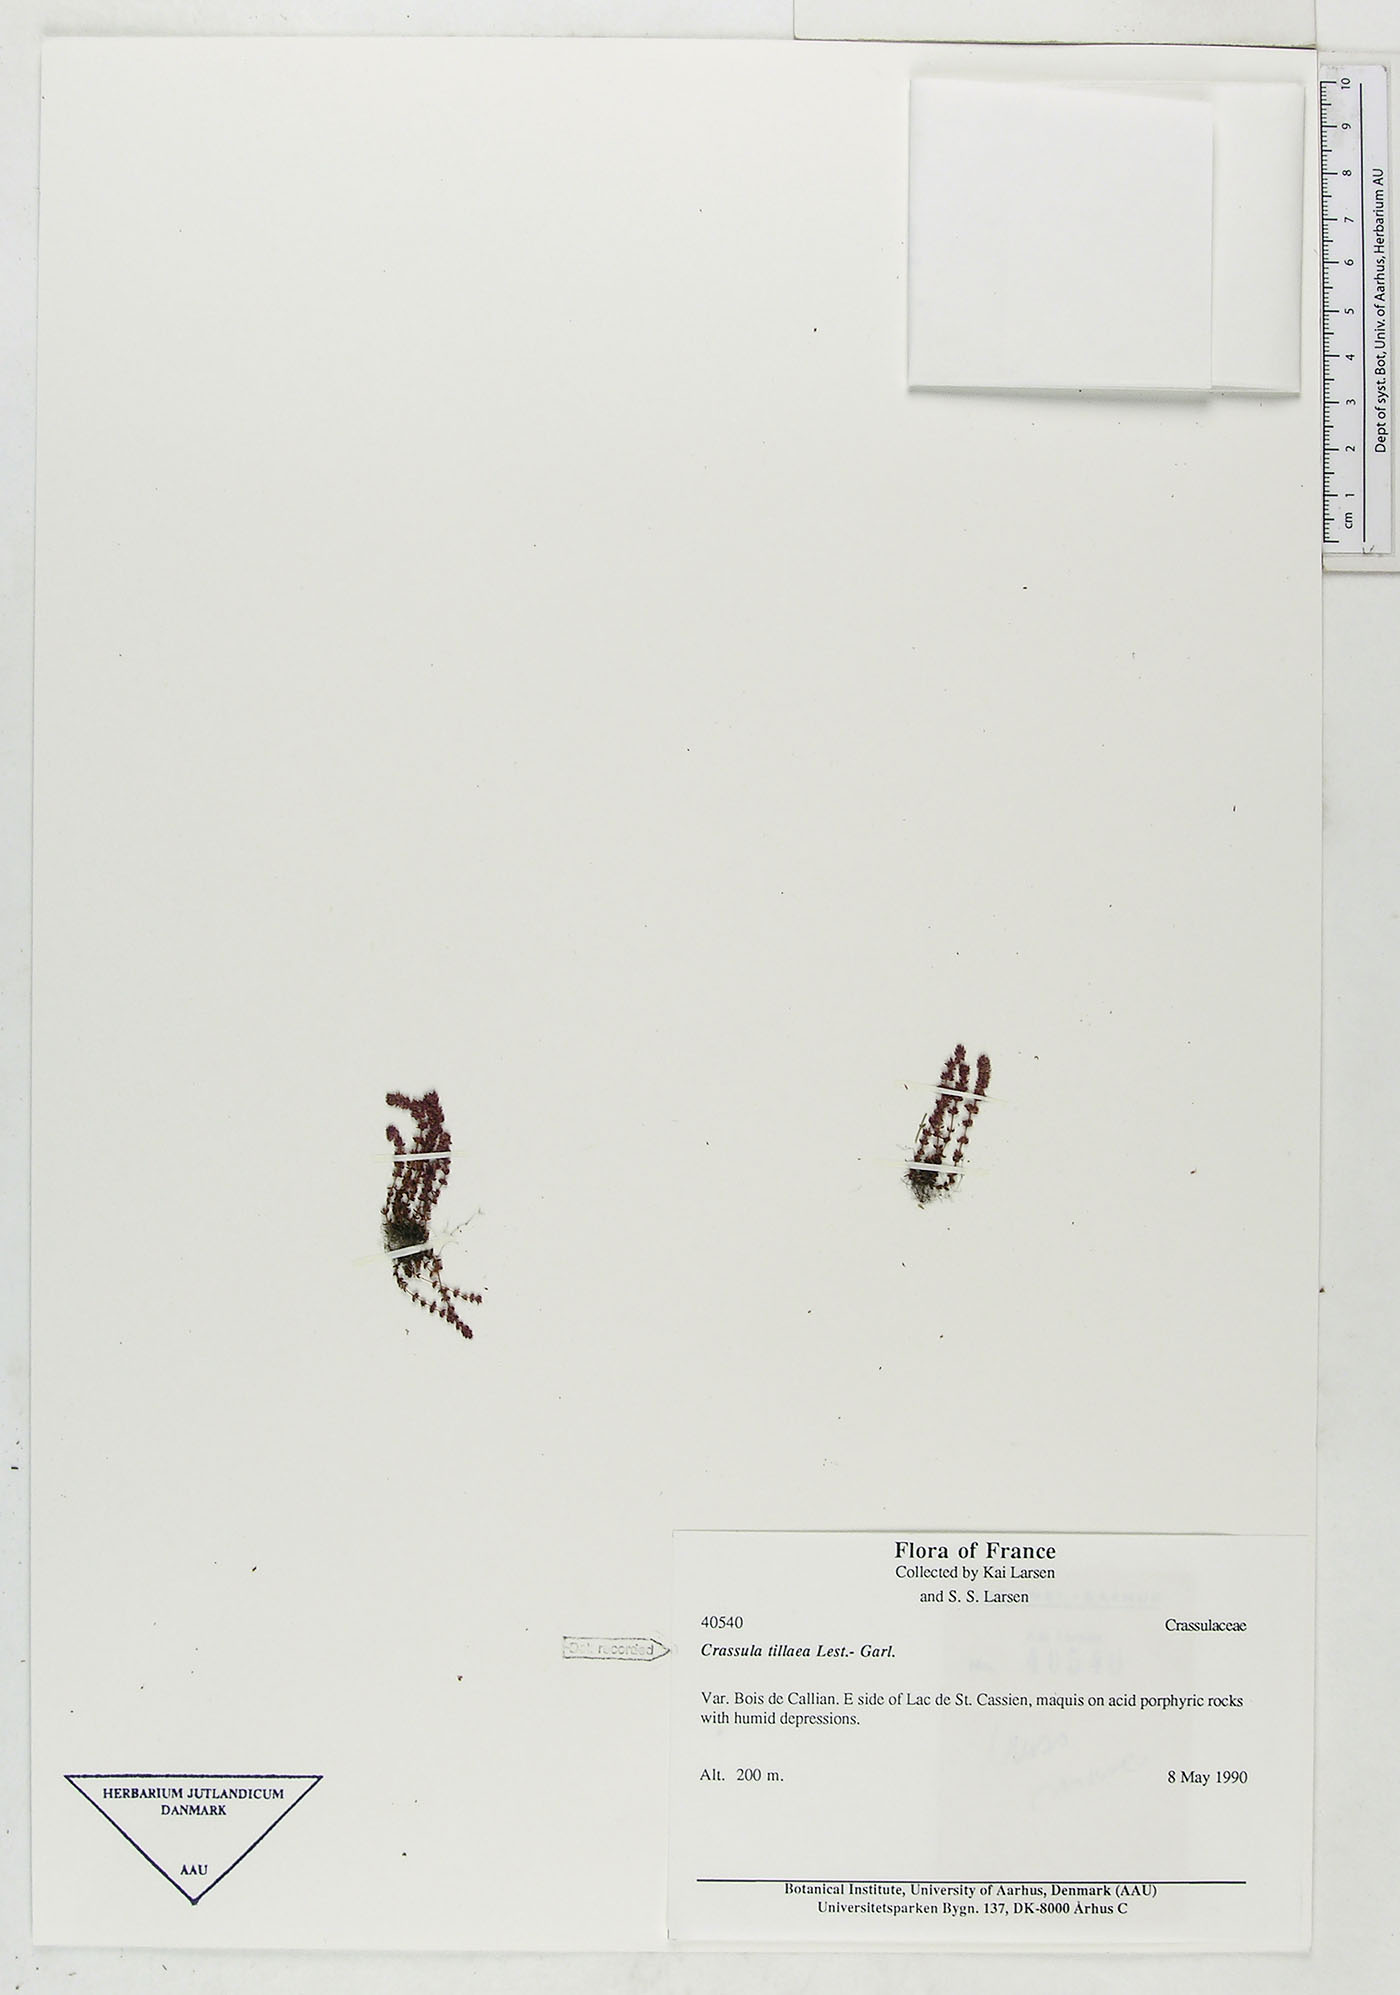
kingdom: Plantae
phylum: Tracheophyta
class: Magnoliopsida
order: Saxifragales
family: Crassulaceae
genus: Crassula
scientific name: Crassula tillaea
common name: Mossy stonecrop
